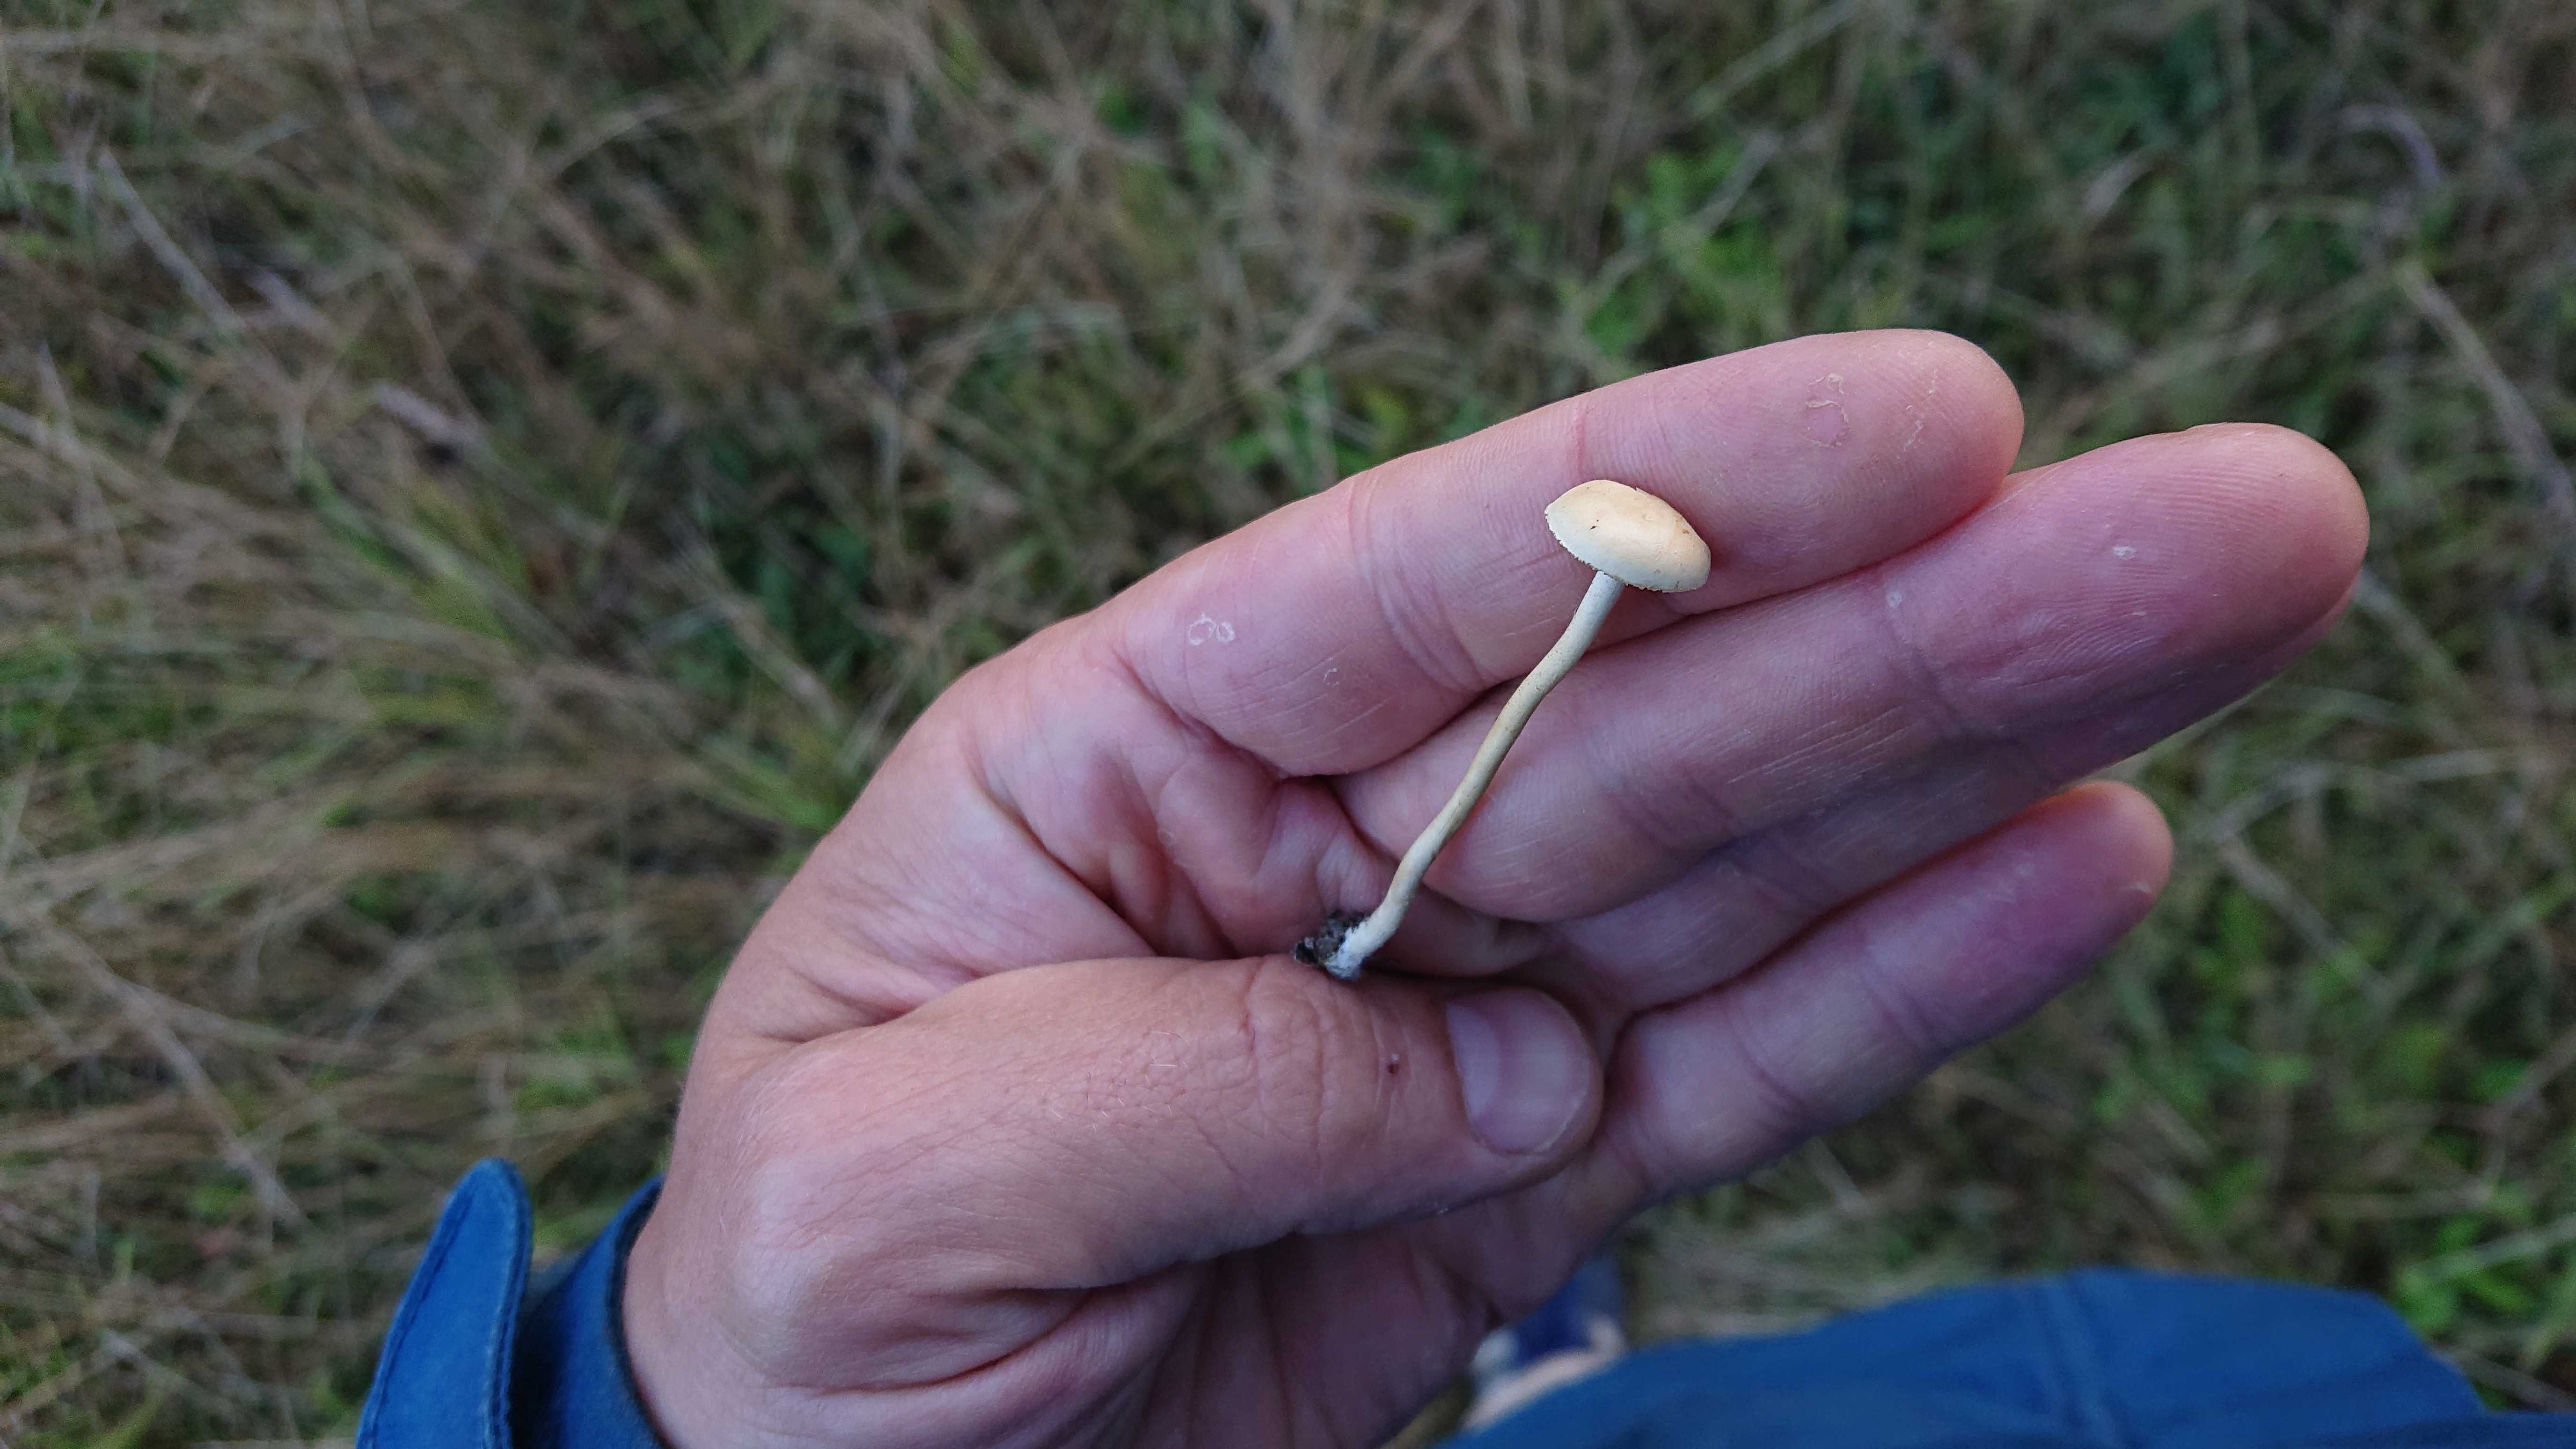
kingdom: Fungi
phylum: Basidiomycota
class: Agaricomycetes
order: Agaricales
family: Strophariaceae
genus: Agrocybe
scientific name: Agrocybe pediades
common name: almindelig agerhat
